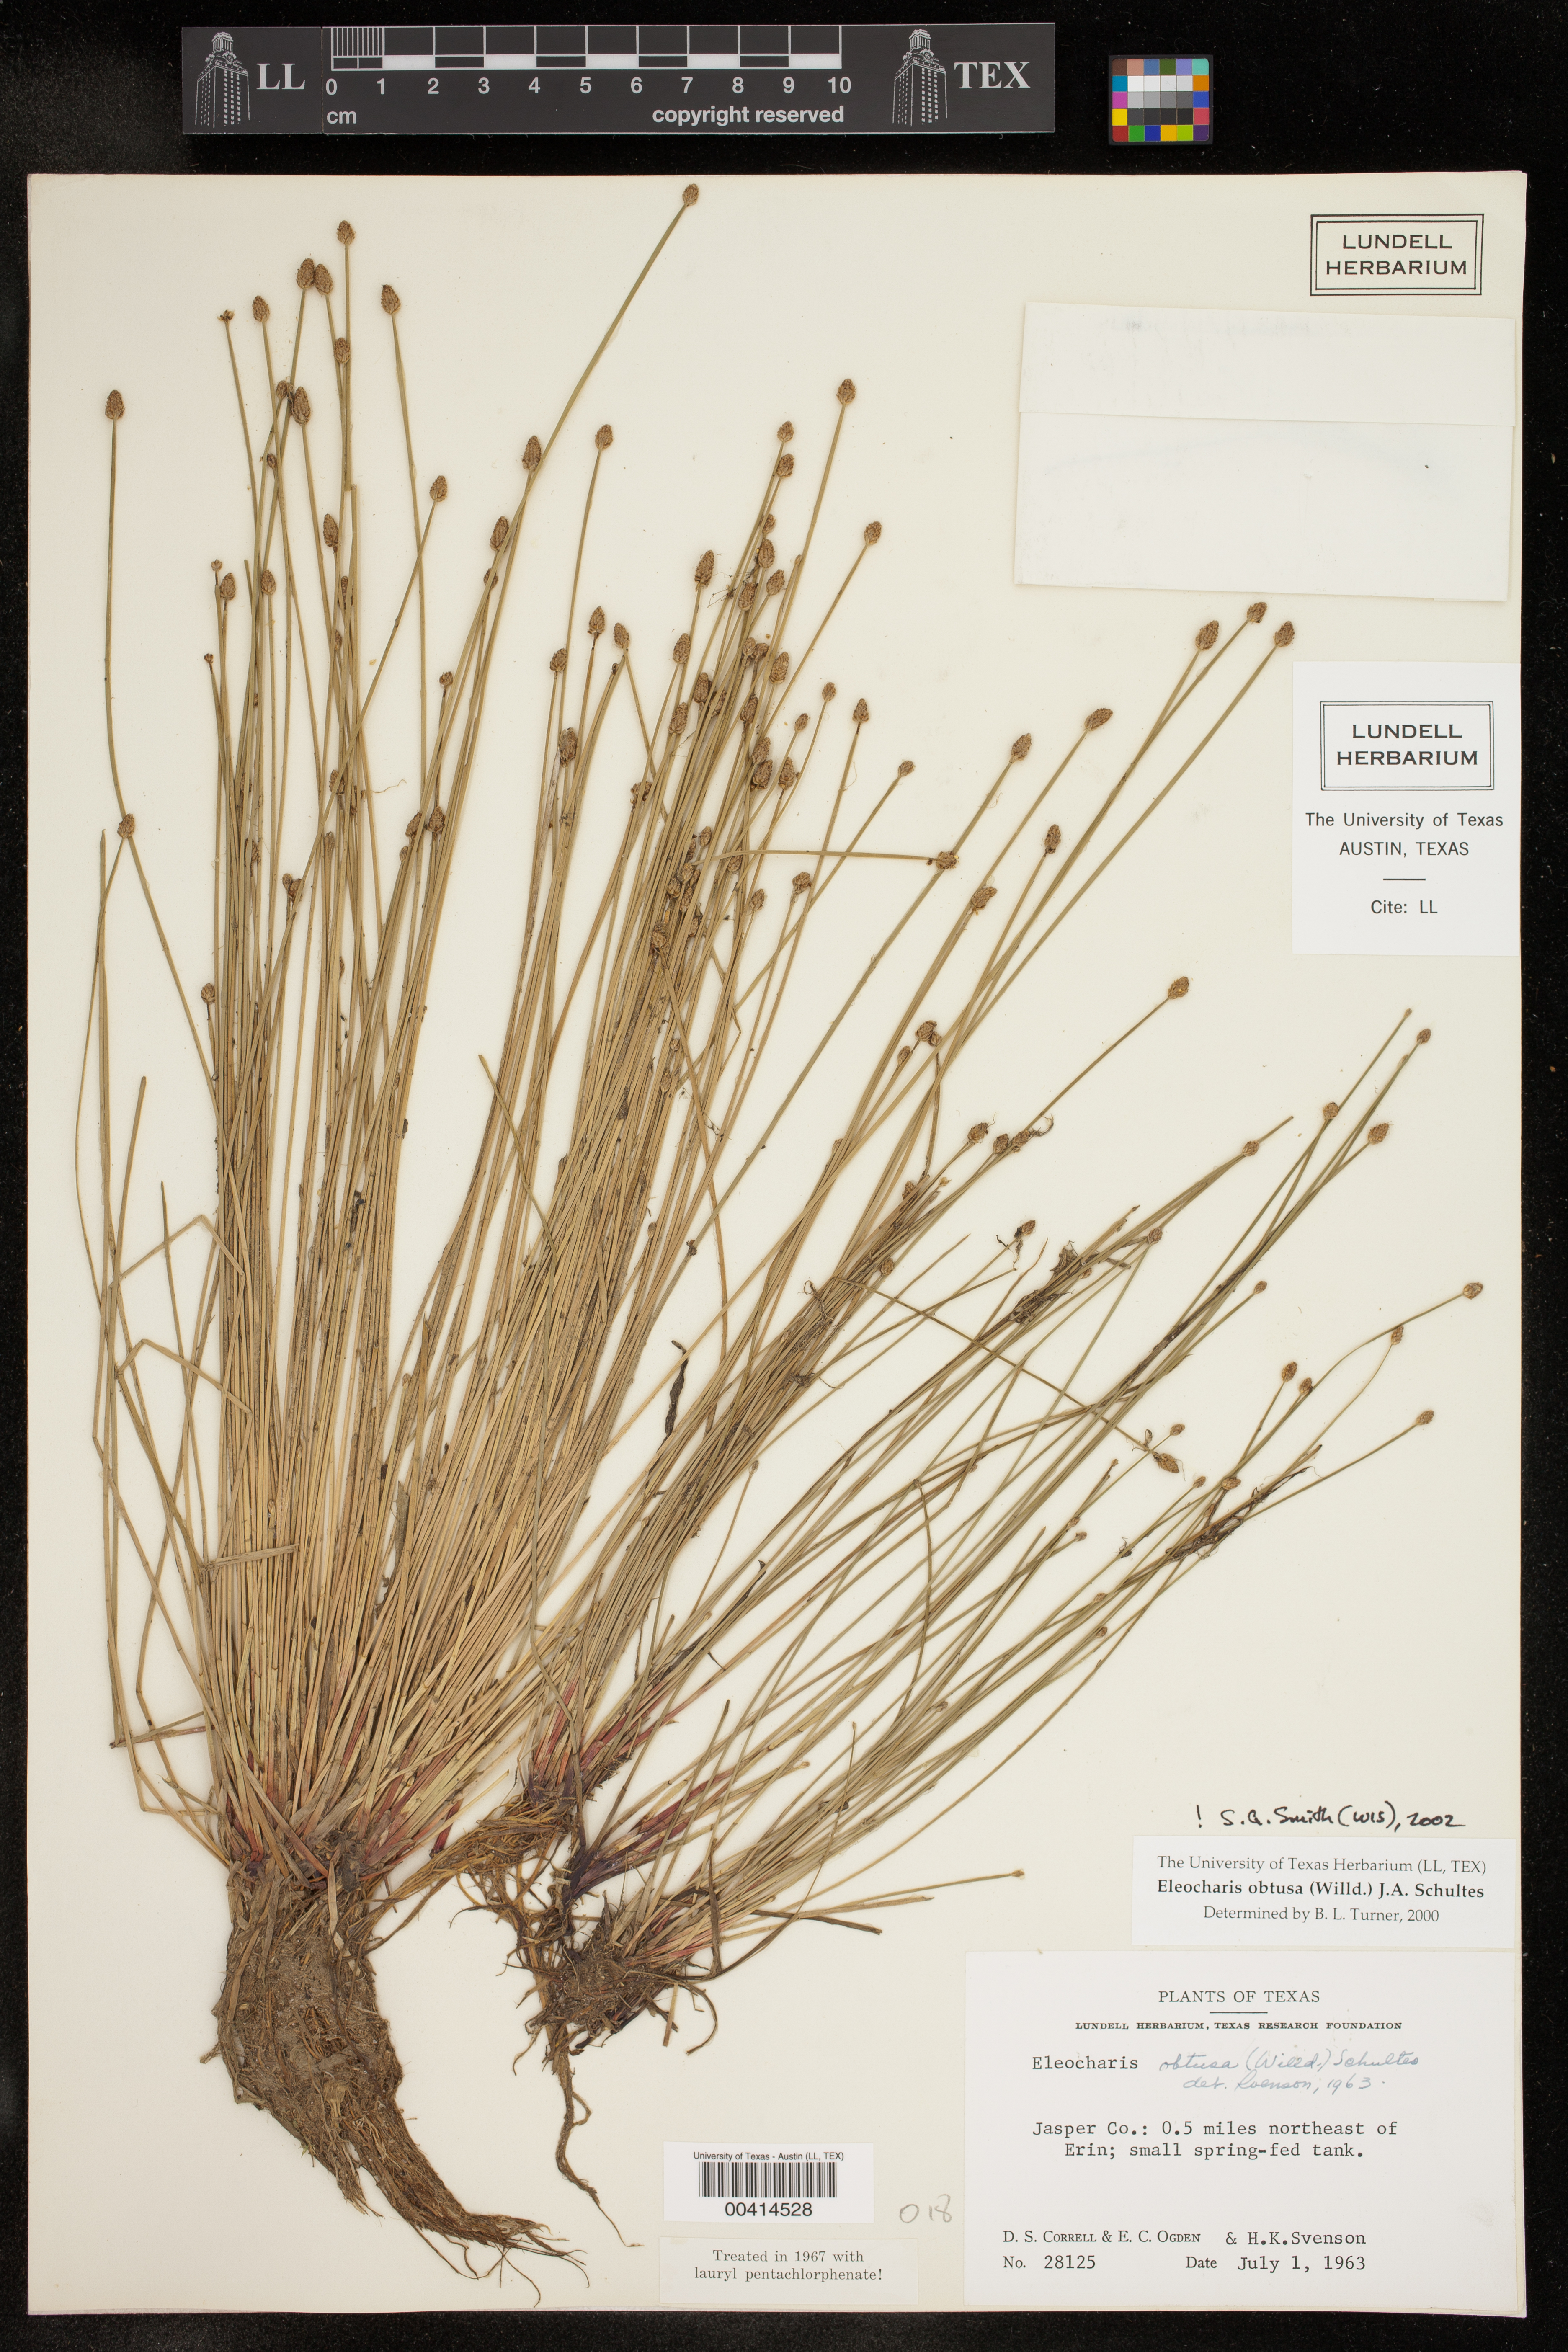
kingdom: Plantae
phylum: Tracheophyta
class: Liliopsida
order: Poales
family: Cyperaceae
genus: Eleocharis
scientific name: Eleocharis obtusa
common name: Blunt spikerush
